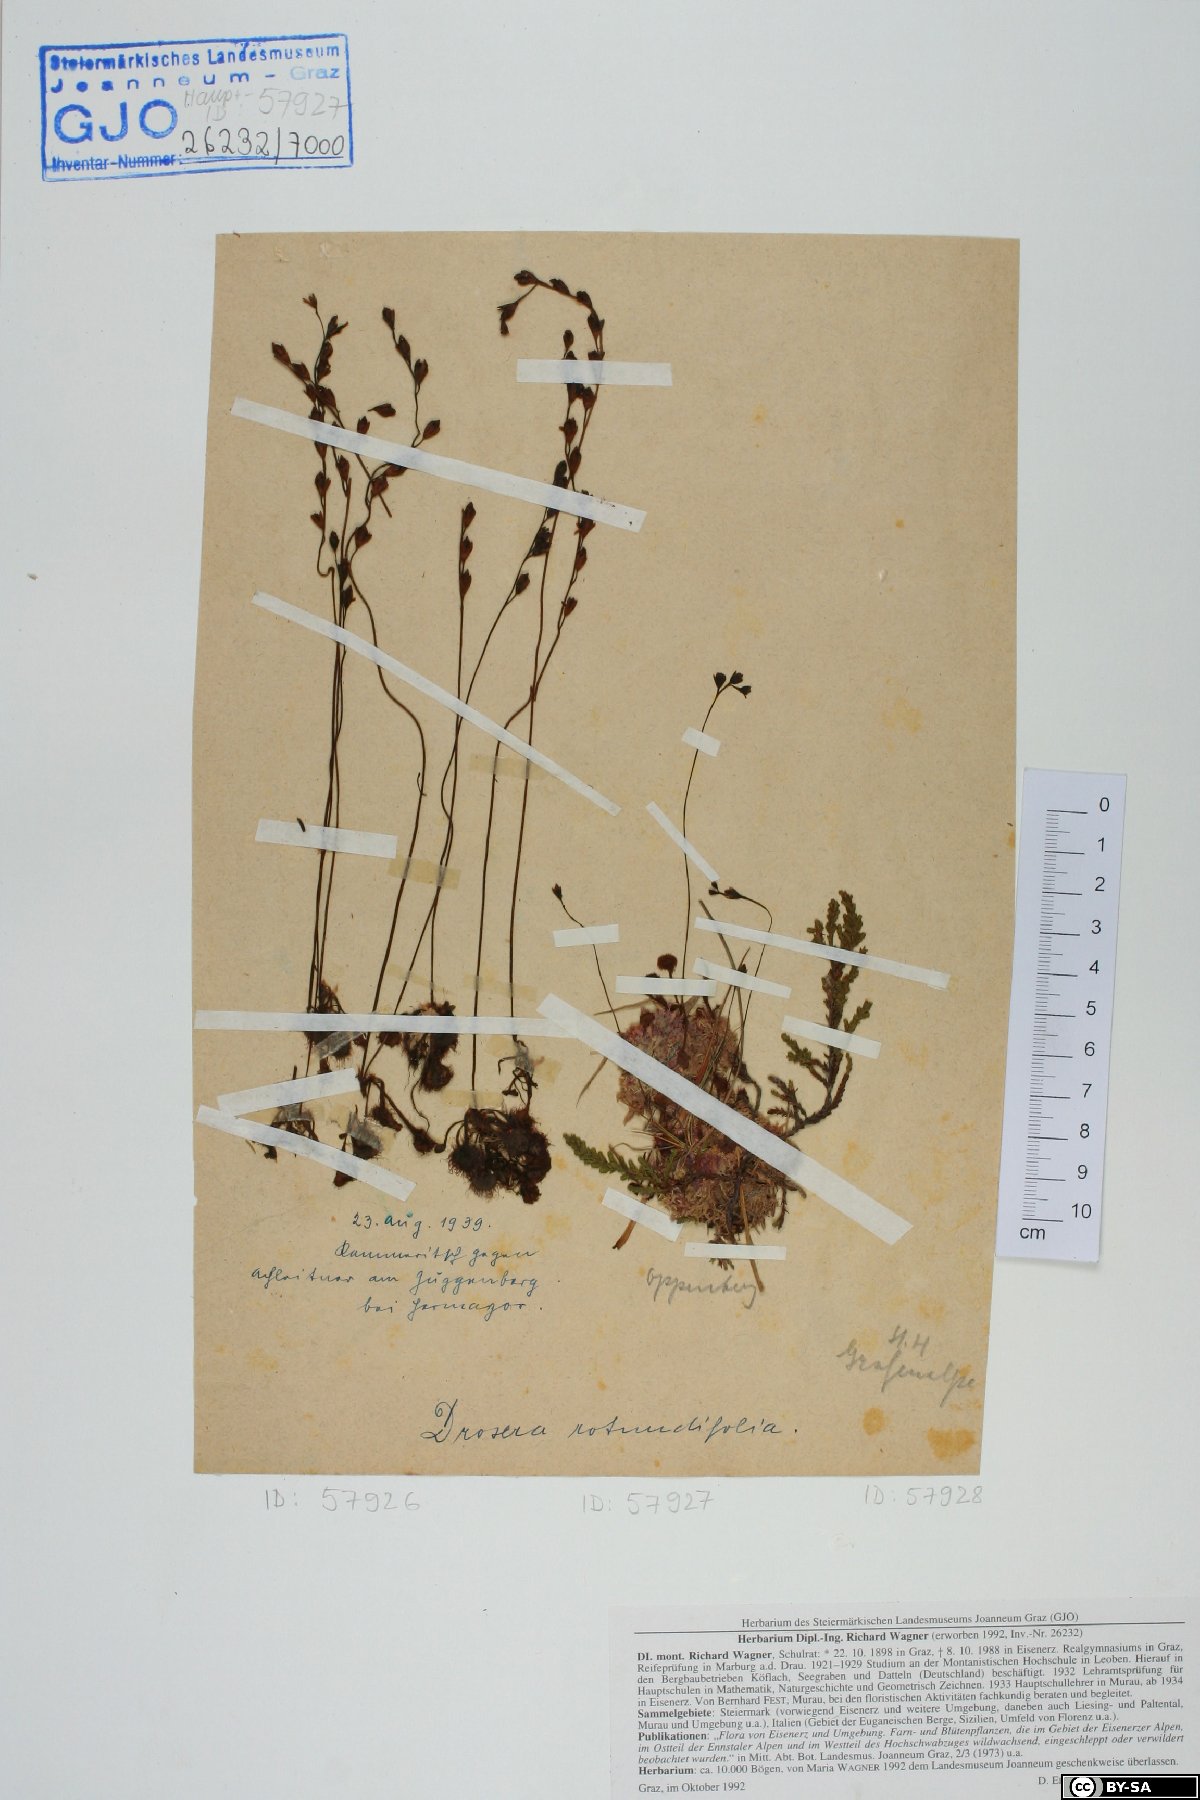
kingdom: Plantae
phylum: Tracheophyta
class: Magnoliopsida
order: Caryophyllales
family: Droseraceae
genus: Drosera
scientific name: Drosera rotundifolia
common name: Round-leaved sundew
